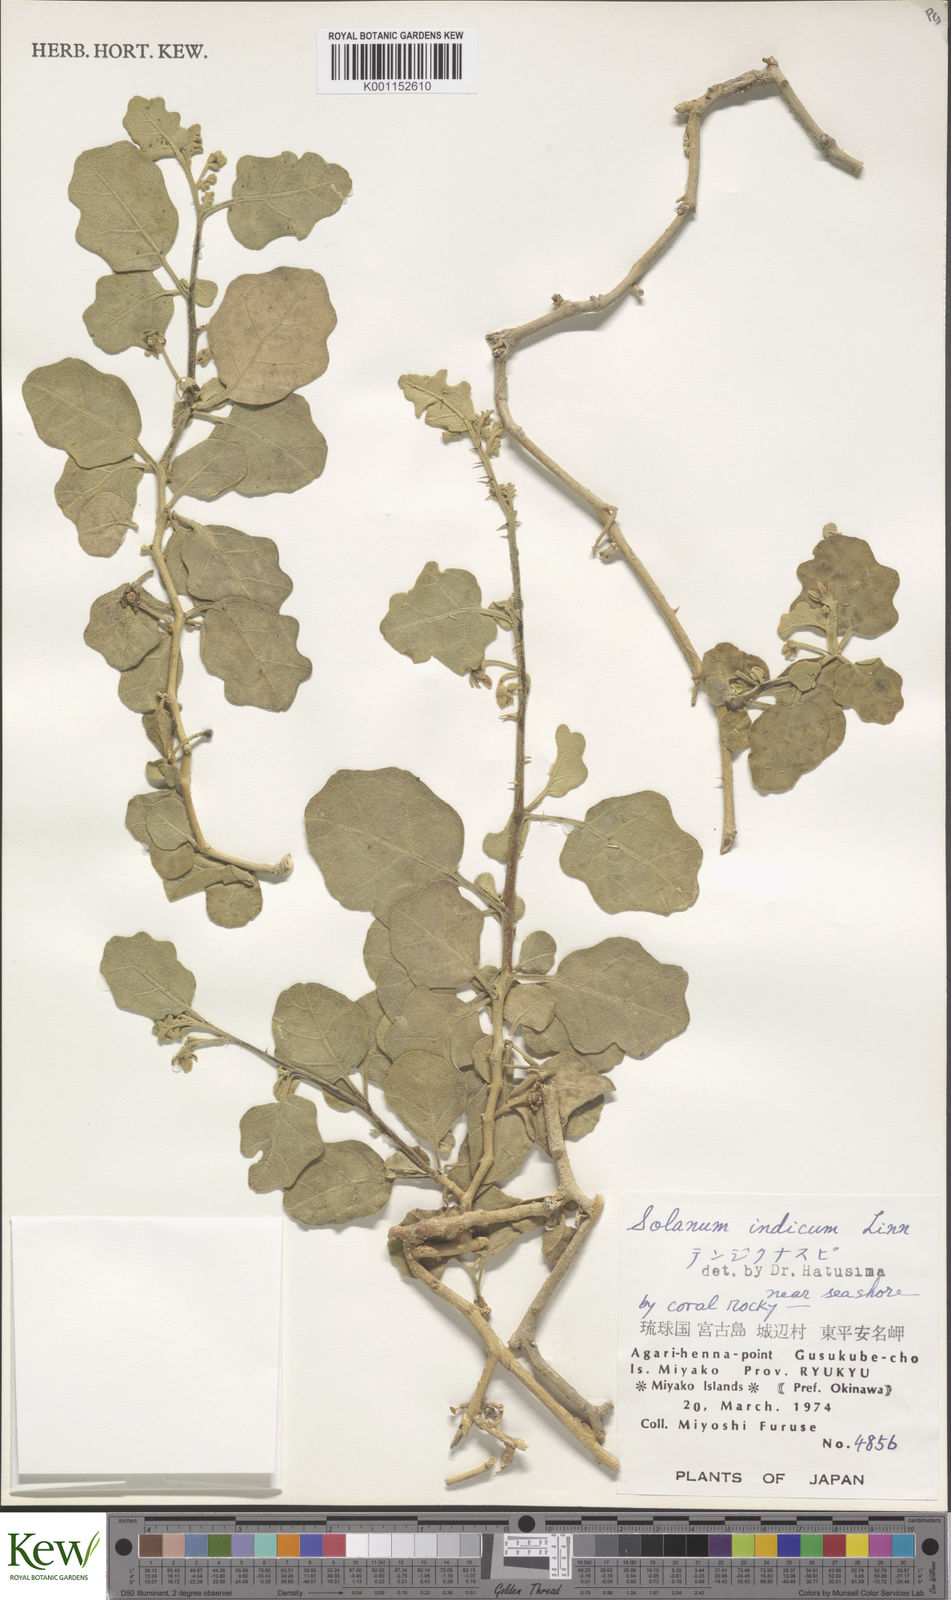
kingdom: Plantae
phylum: Tracheophyta
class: Magnoliopsida
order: Solanales
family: Solanaceae
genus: Solanum
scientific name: Solanum violaceum
